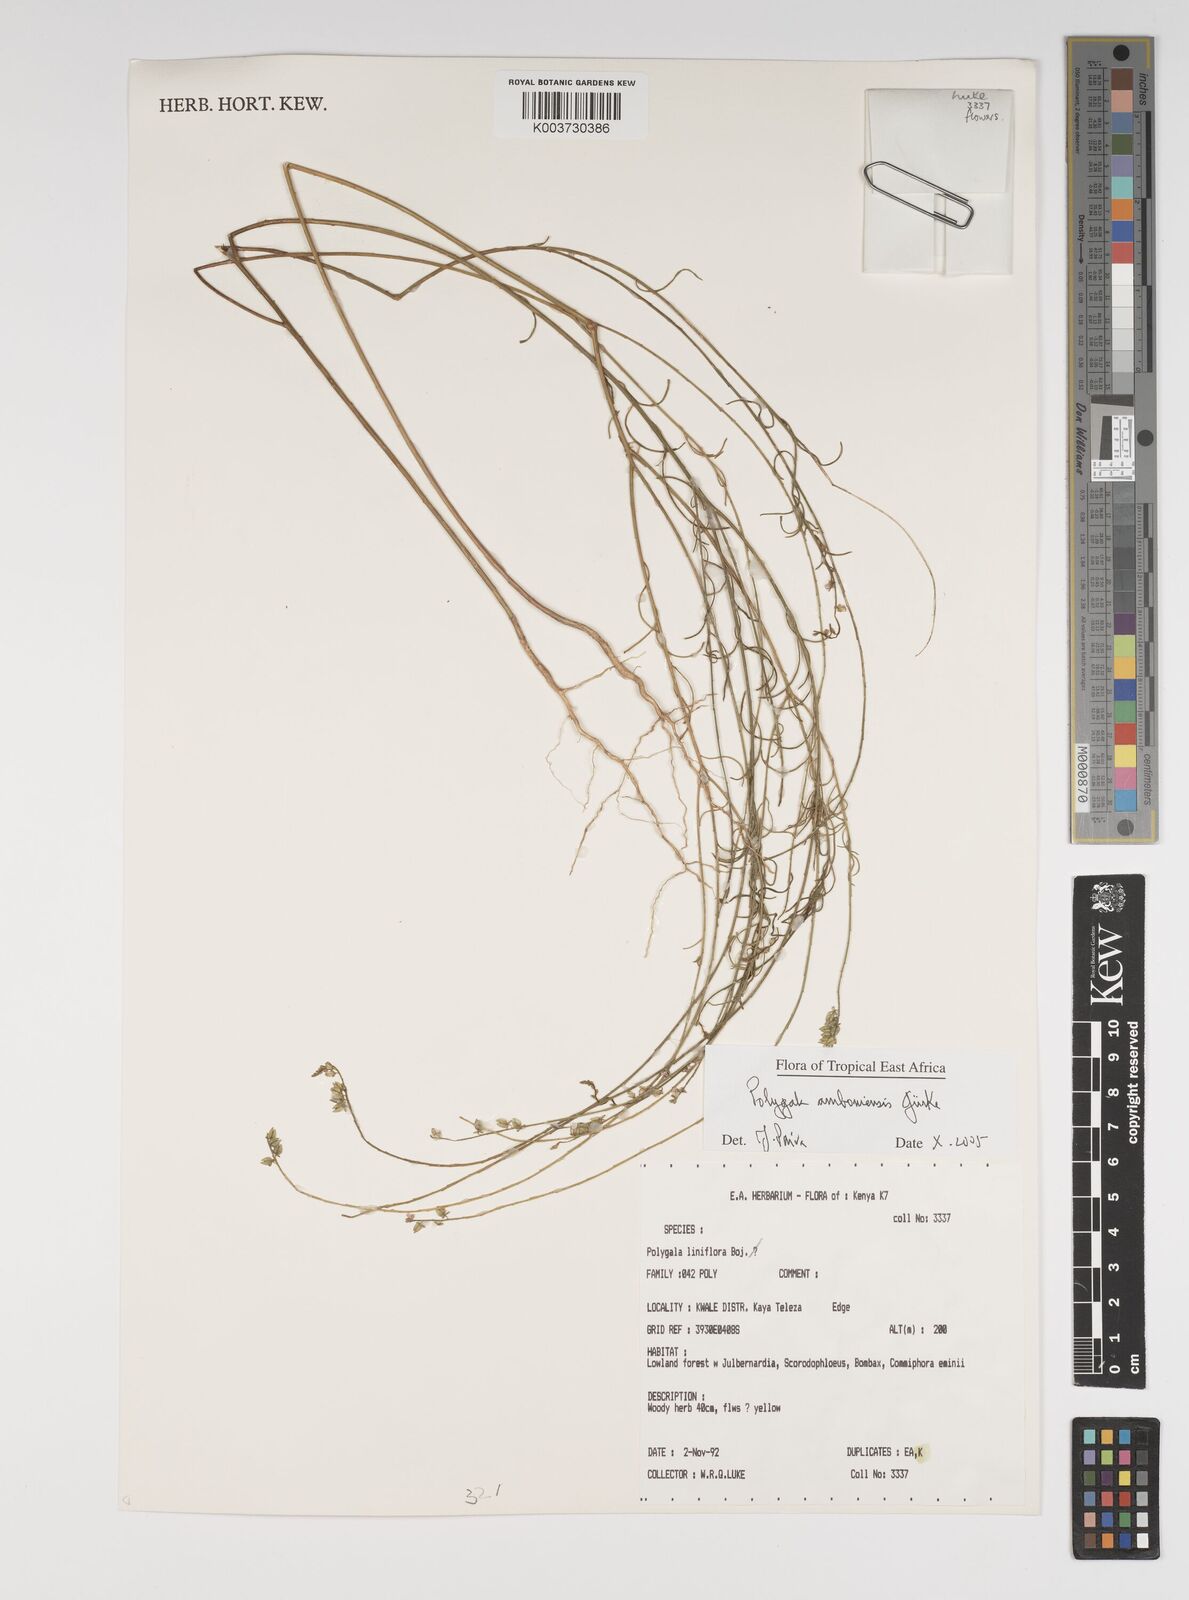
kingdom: Plantae
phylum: Tracheophyta
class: Magnoliopsida
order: Fabales
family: Polygalaceae
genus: Polygala
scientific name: Polygala amboniensis
